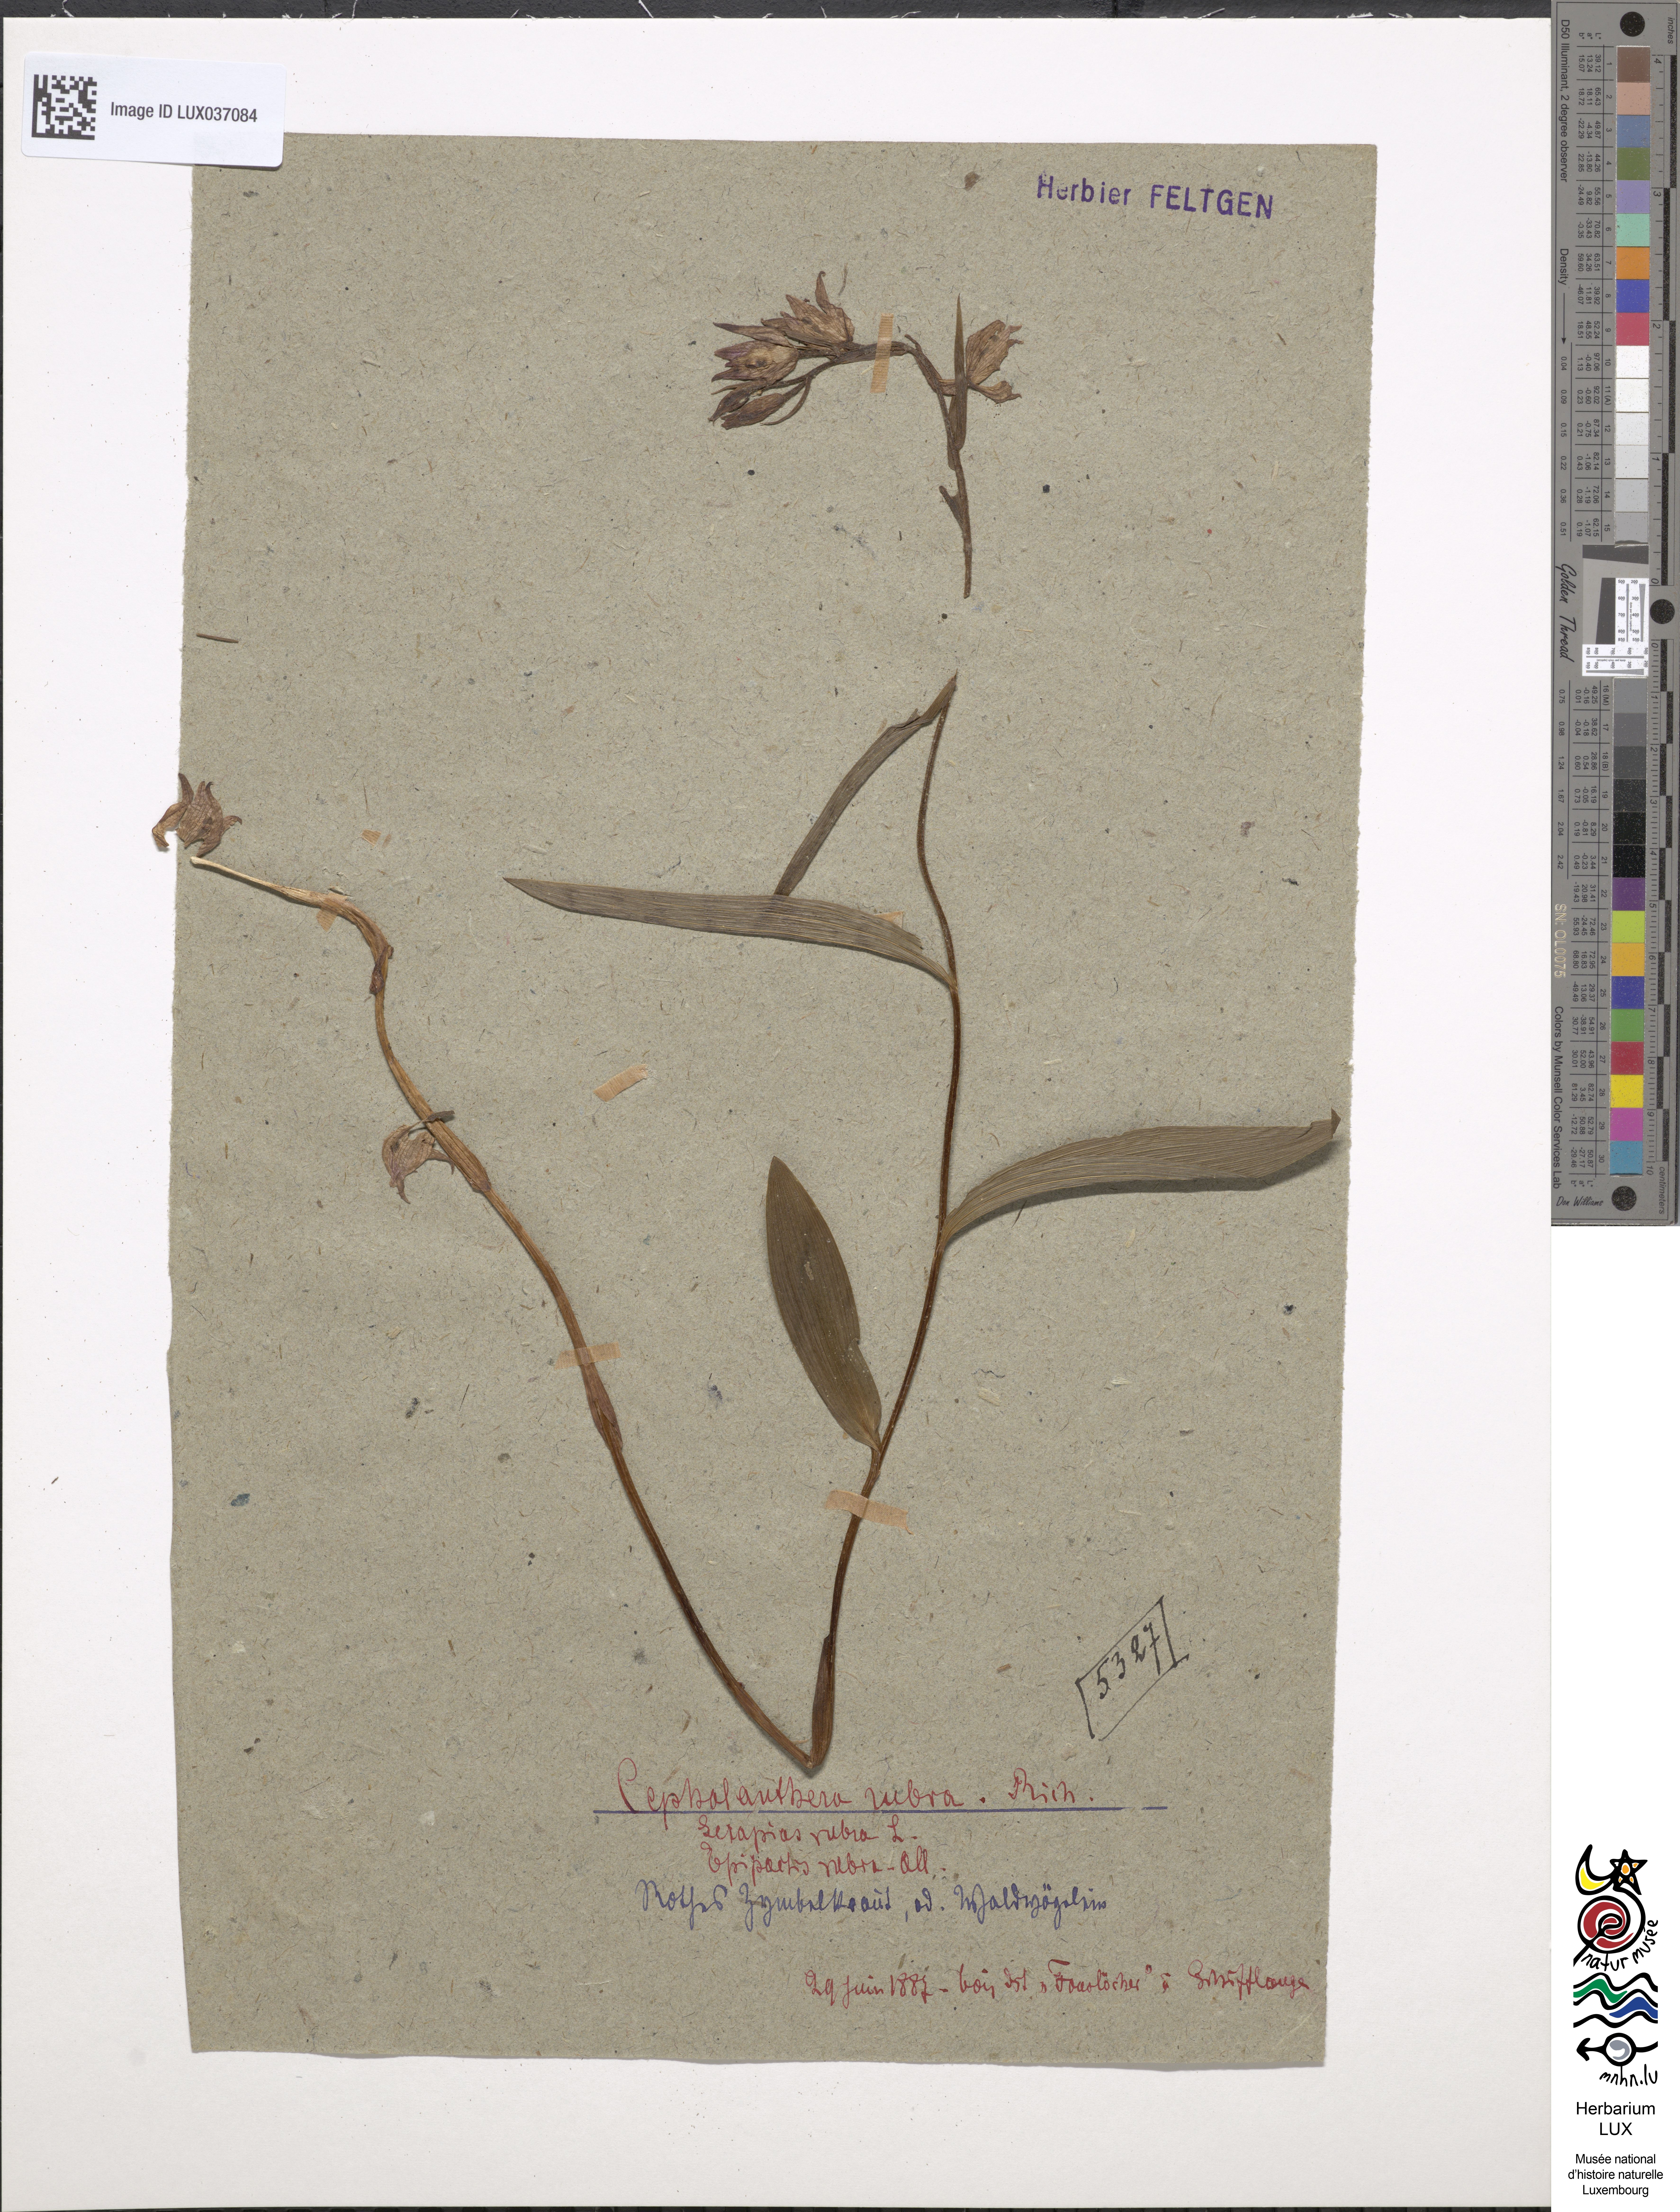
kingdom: Plantae
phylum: Tracheophyta
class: Liliopsida
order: Asparagales
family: Orchidaceae
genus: Cephalanthera
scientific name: Cephalanthera rubra
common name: Red helleborine
